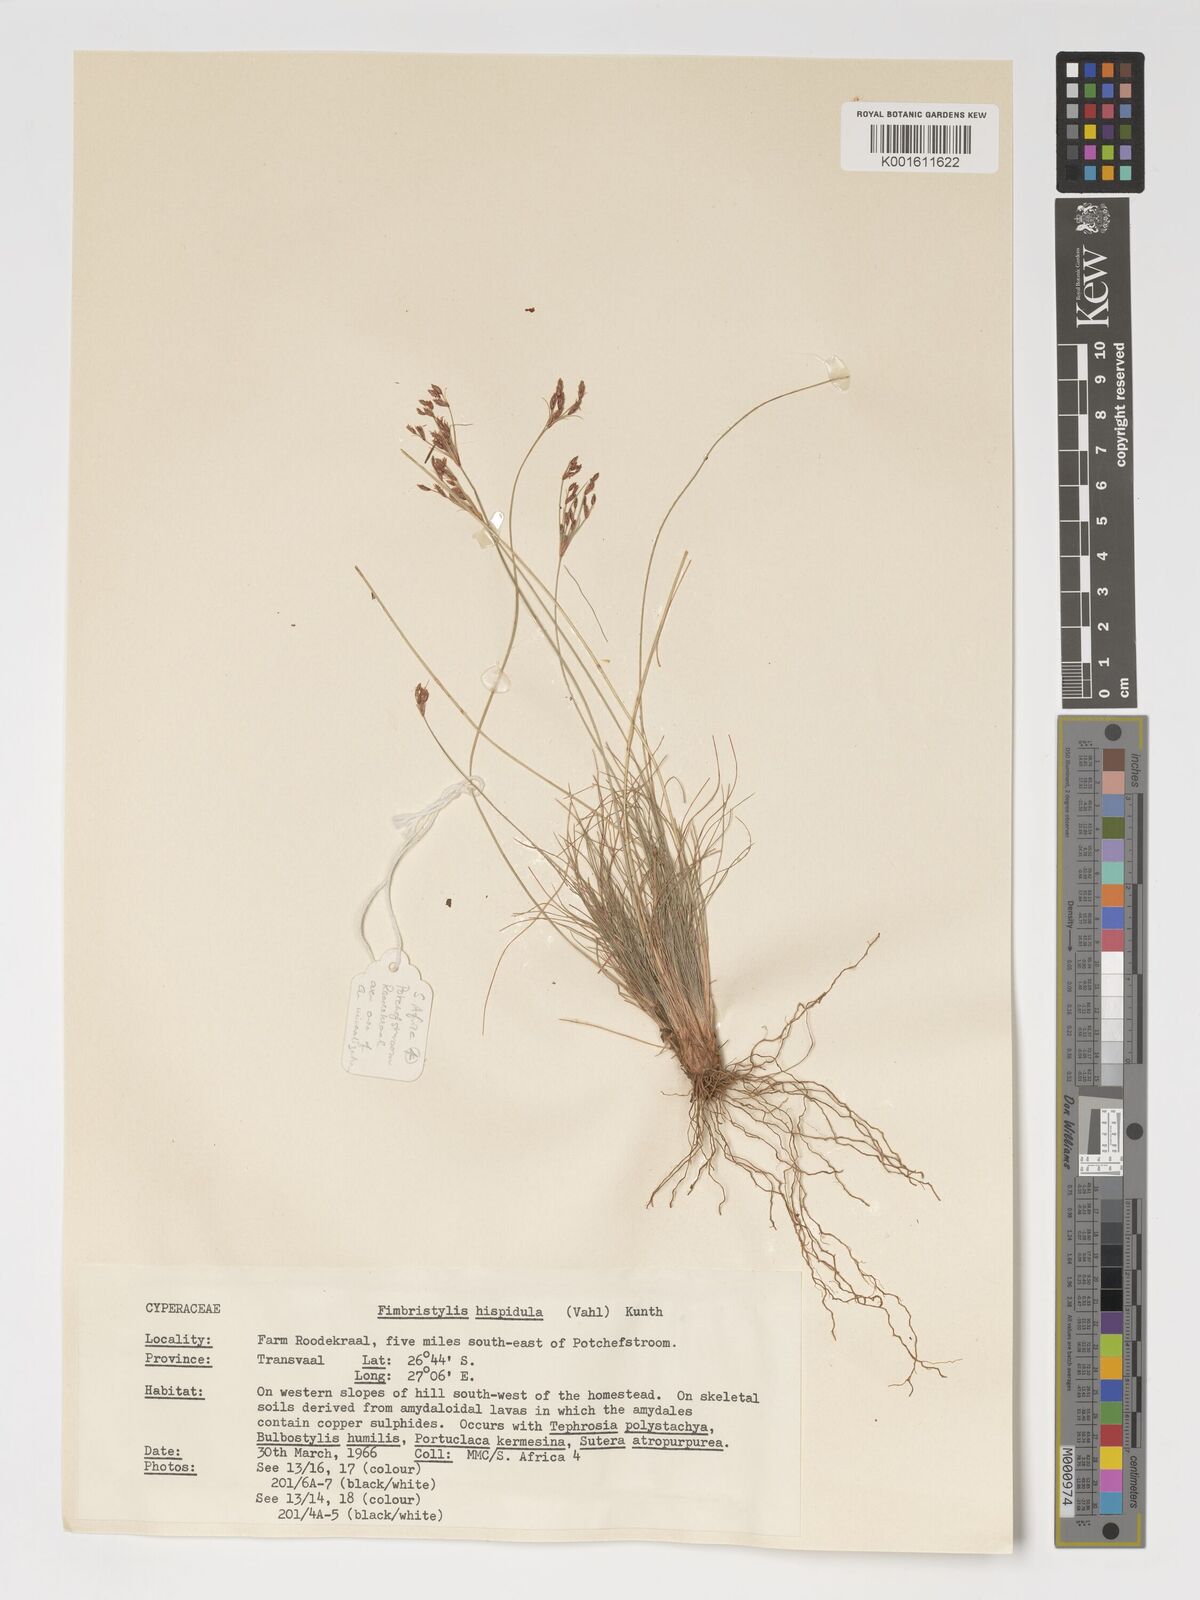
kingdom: Plantae
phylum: Tracheophyta
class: Liliopsida
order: Poales
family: Cyperaceae
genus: Bulbostylis
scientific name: Bulbostylis hispidula
